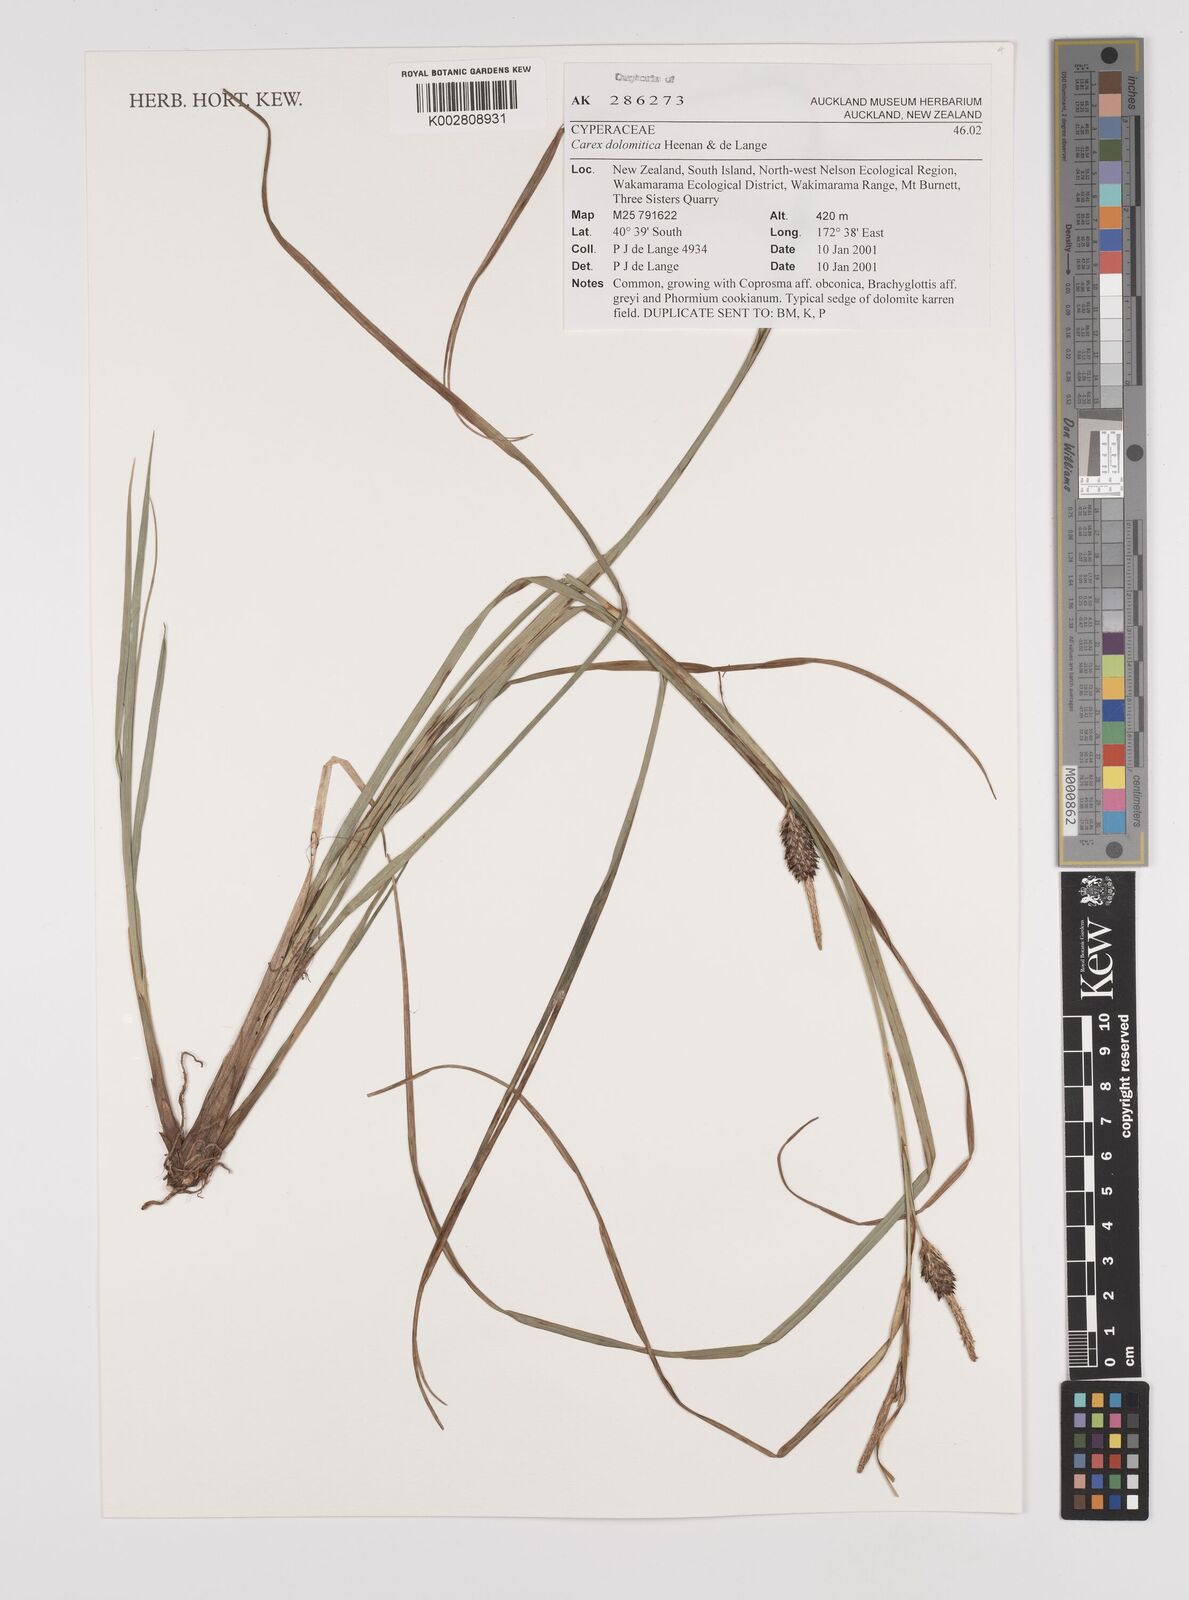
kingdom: Plantae
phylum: Tracheophyta
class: Liliopsida
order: Poales
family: Cyperaceae
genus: Carex
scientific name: Carex dolomitica
